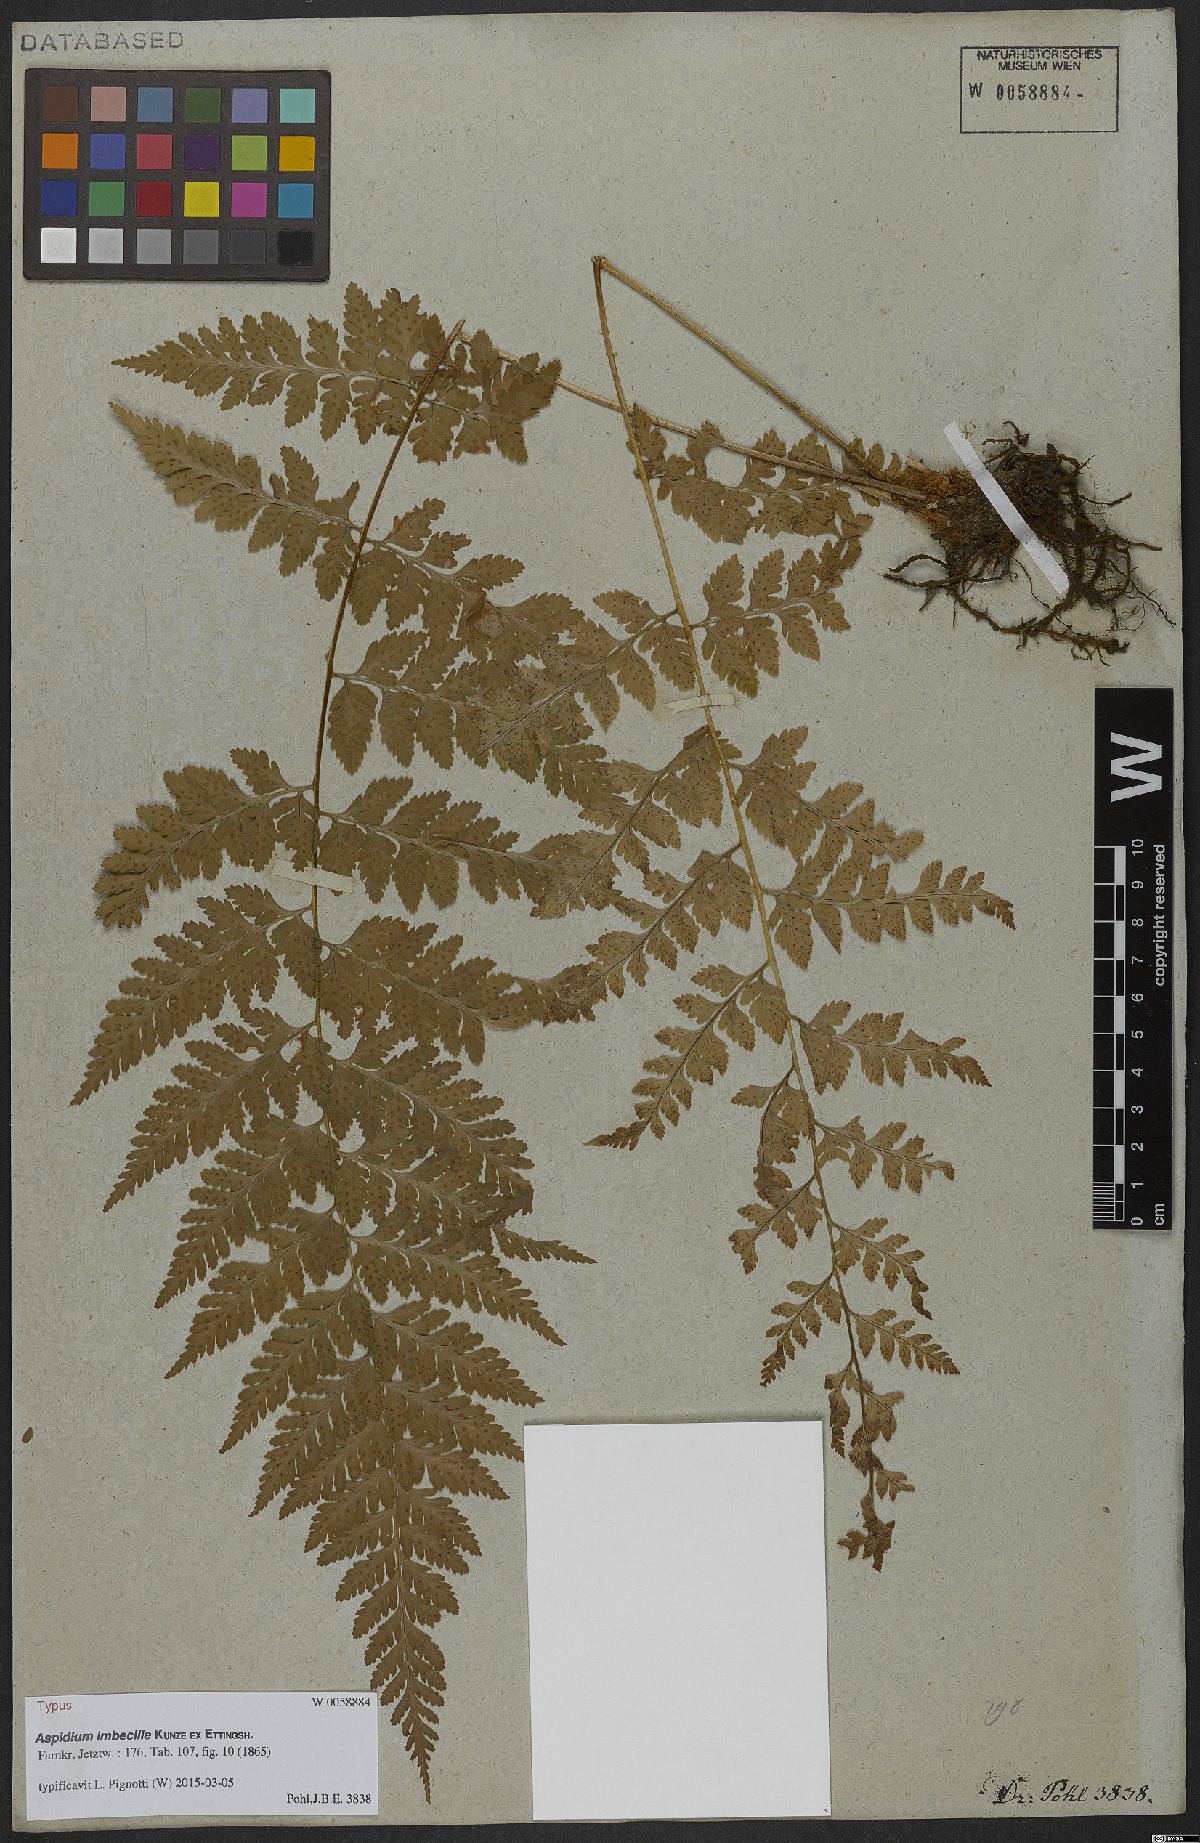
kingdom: Plantae
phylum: Tracheophyta
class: Polypodiopsida
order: Polypodiales
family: Dryopteridaceae
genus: Dryopteris
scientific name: Dryopteris patula
